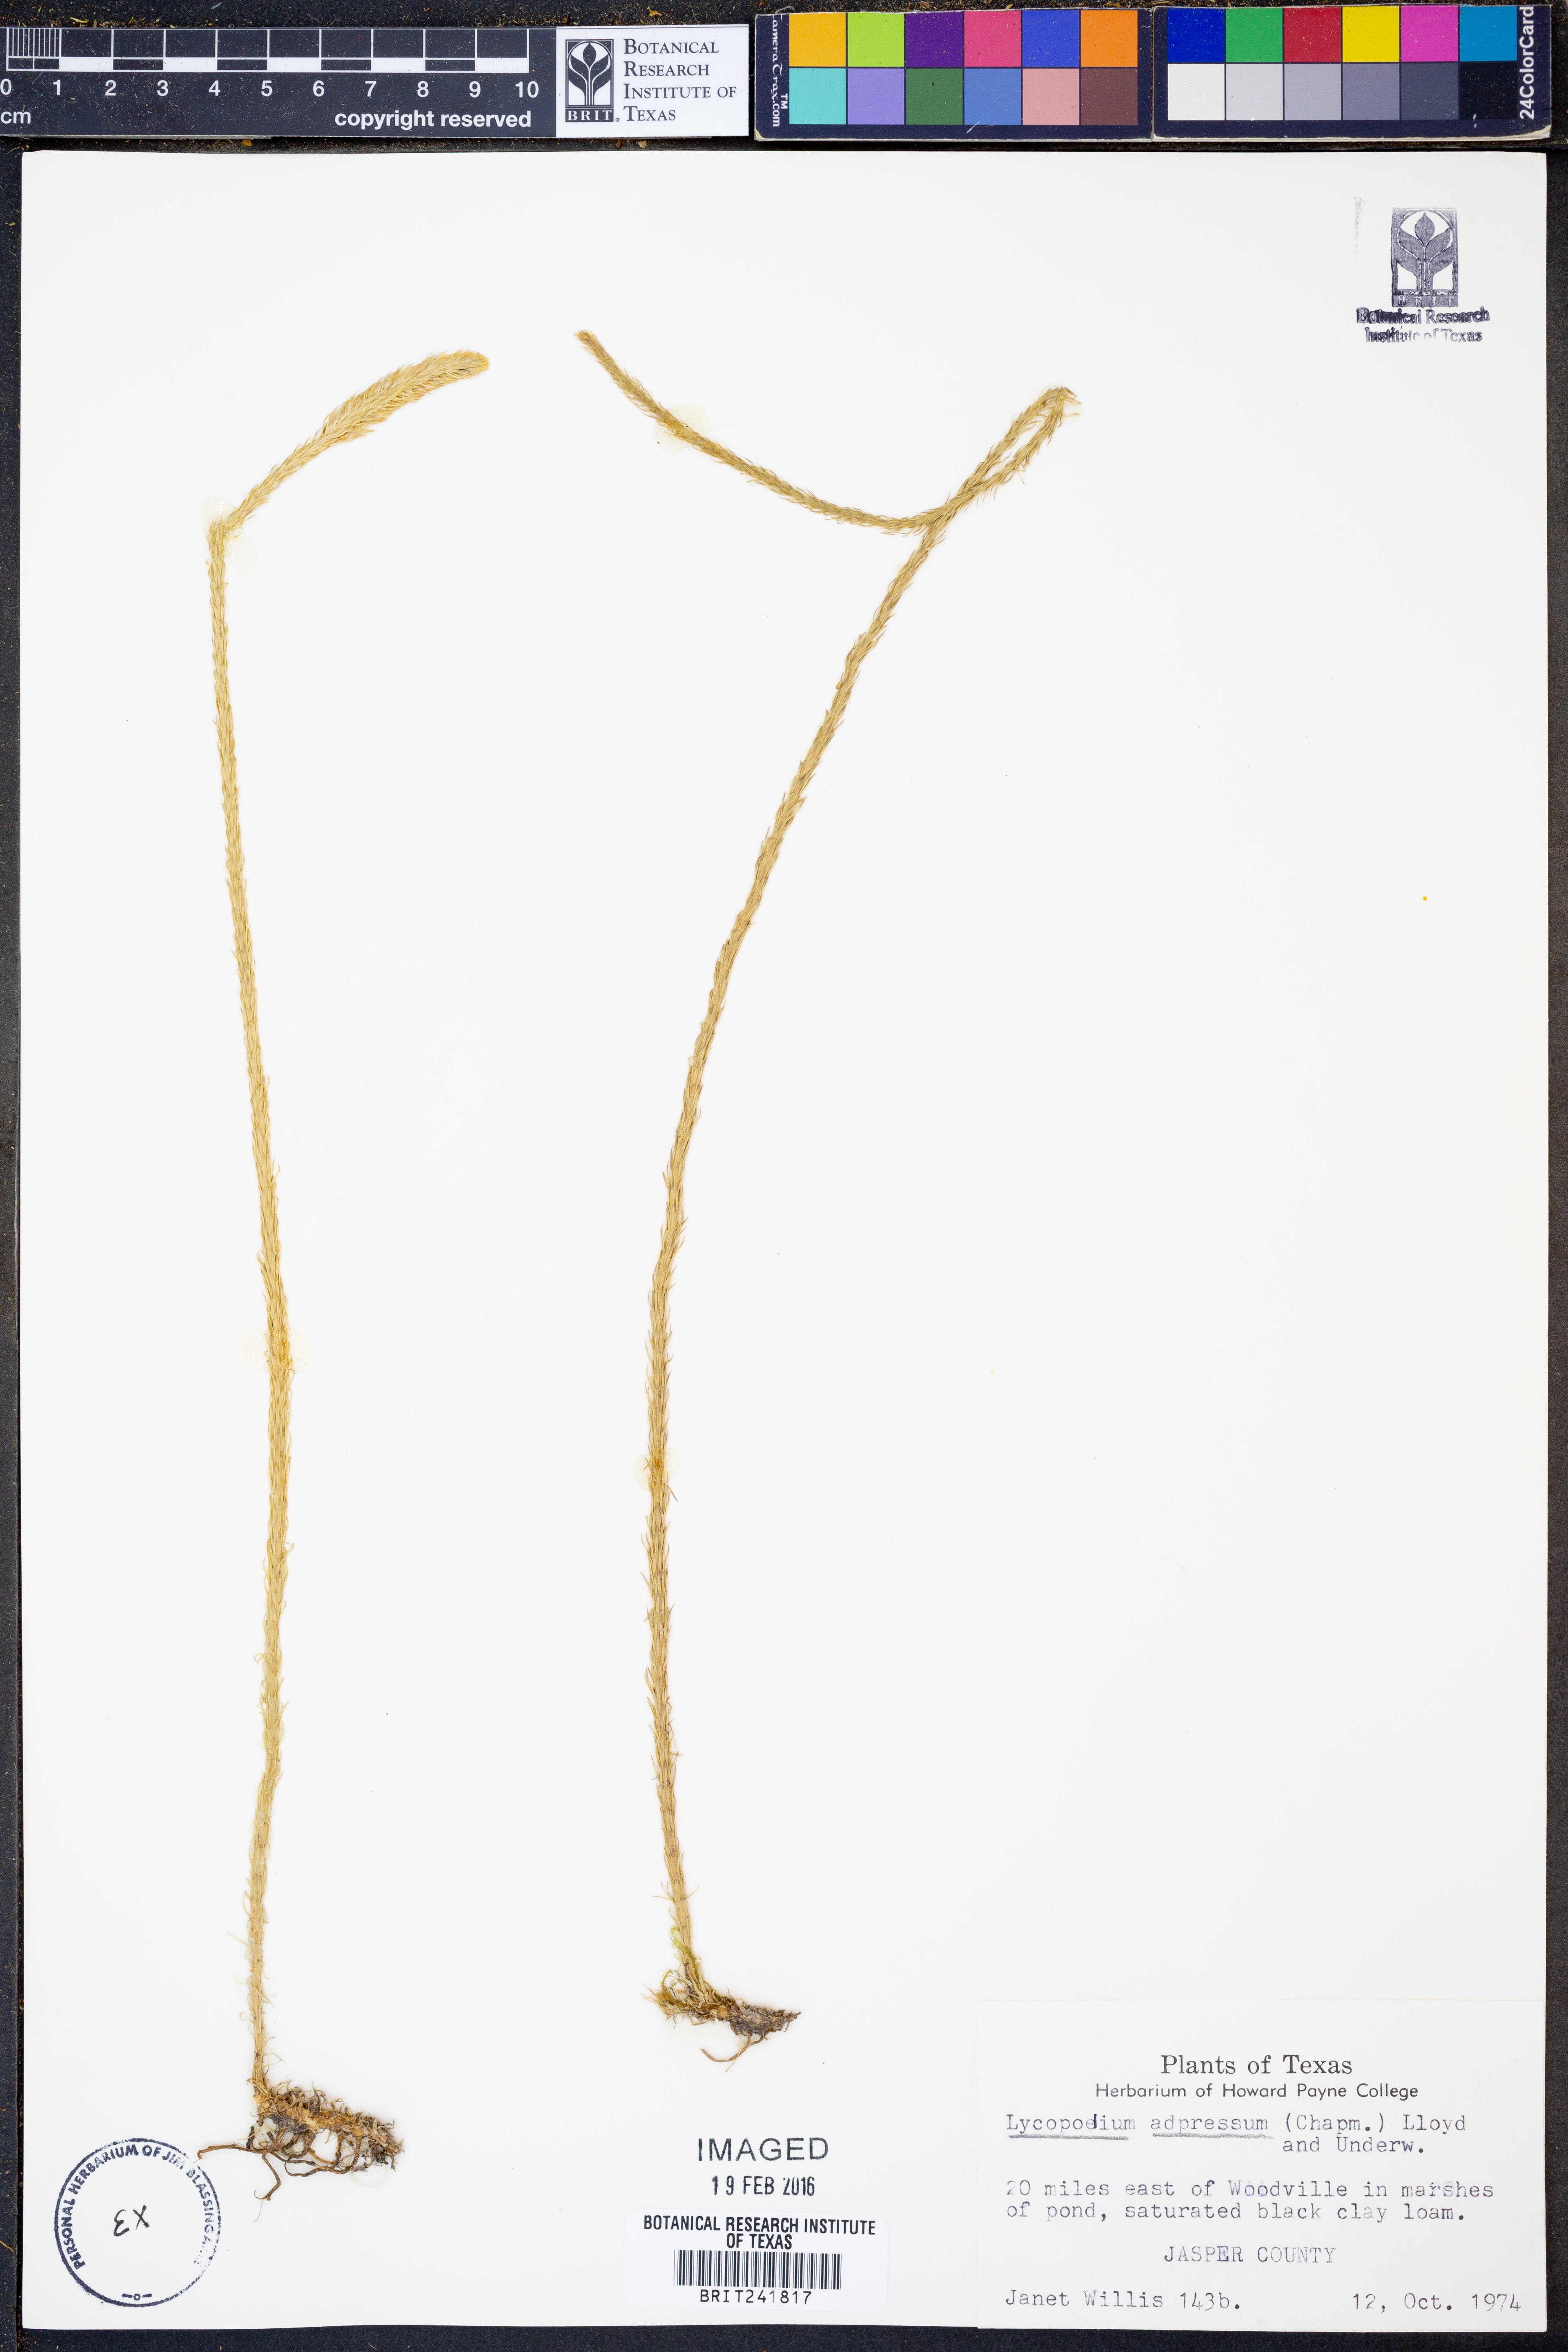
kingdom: Plantae
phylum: Tracheophyta
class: Lycopodiopsida
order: Lycopodiales
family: Lycopodiaceae
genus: Lycopodiella
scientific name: Lycopodiella appressa
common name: Appressed bog clubmoss
